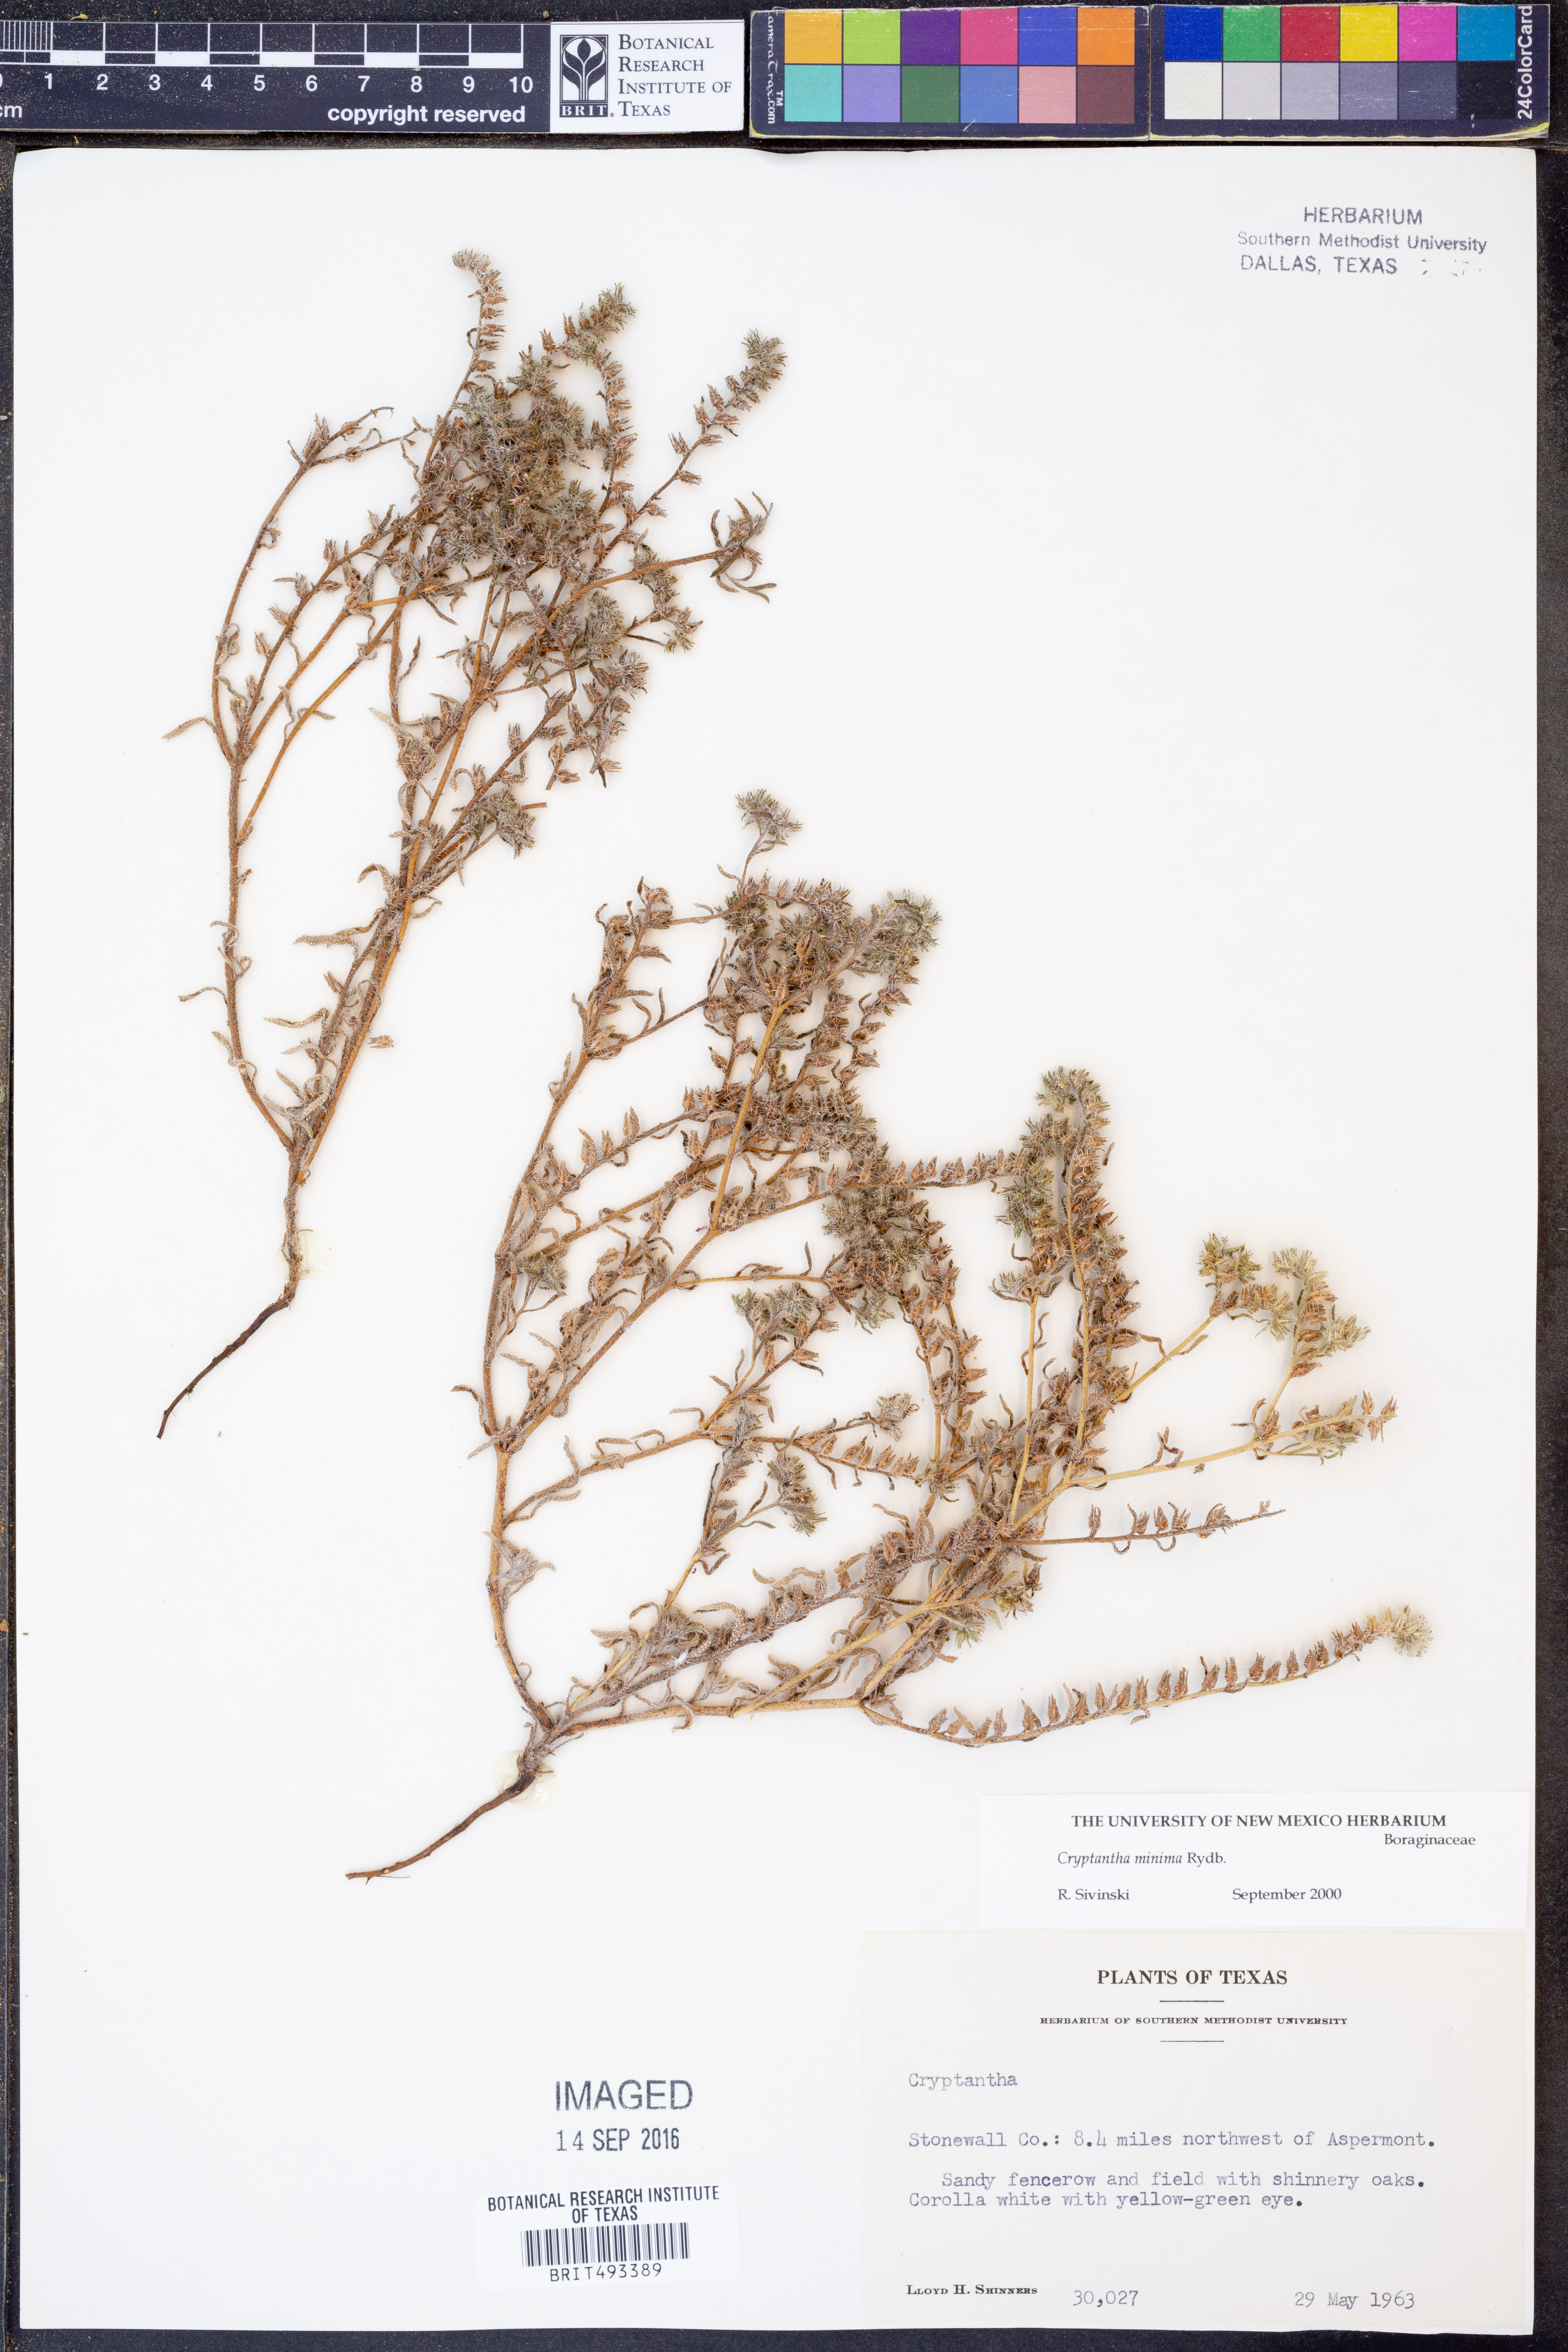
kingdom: Plantae
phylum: Tracheophyta
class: Magnoliopsida
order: Boraginales
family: Boraginaceae
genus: Cryptantha
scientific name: Cryptantha minima
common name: Little cat's-eye
